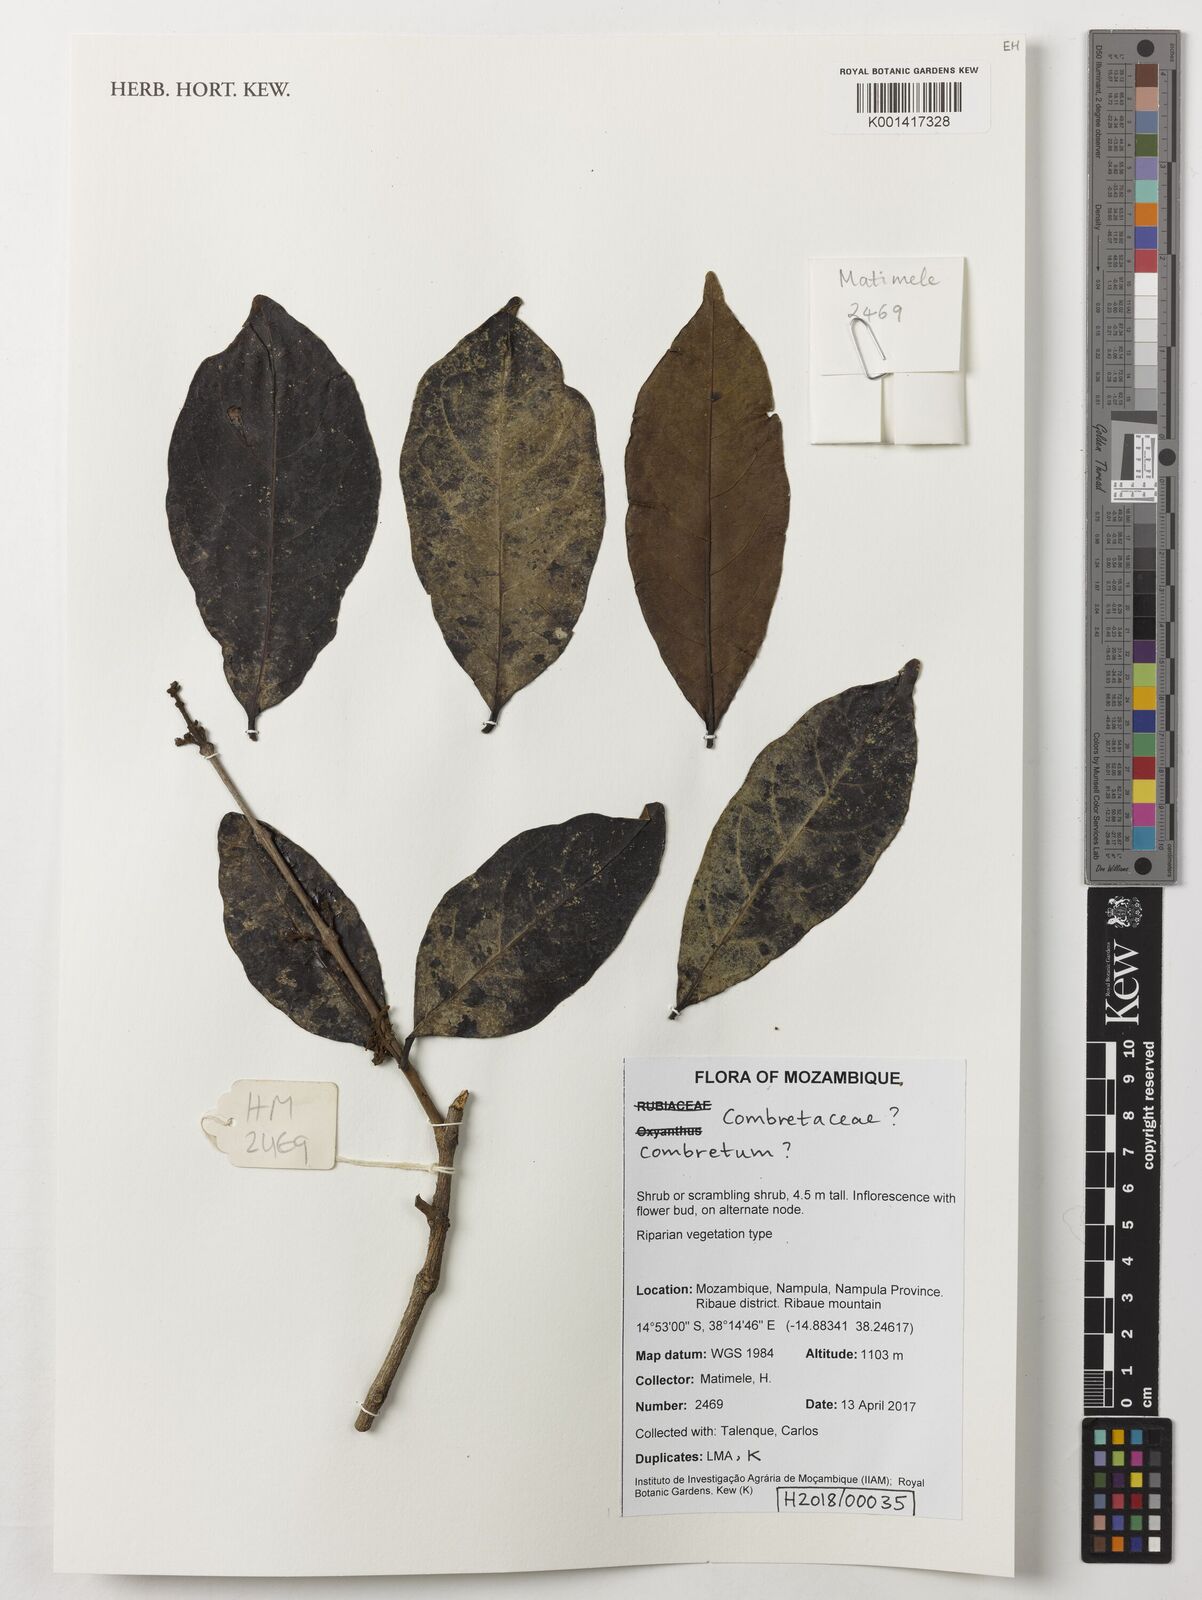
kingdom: Plantae
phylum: Tracheophyta
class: Magnoliopsida
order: Myrtales
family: Combretaceae
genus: Combretum
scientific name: Combretum
